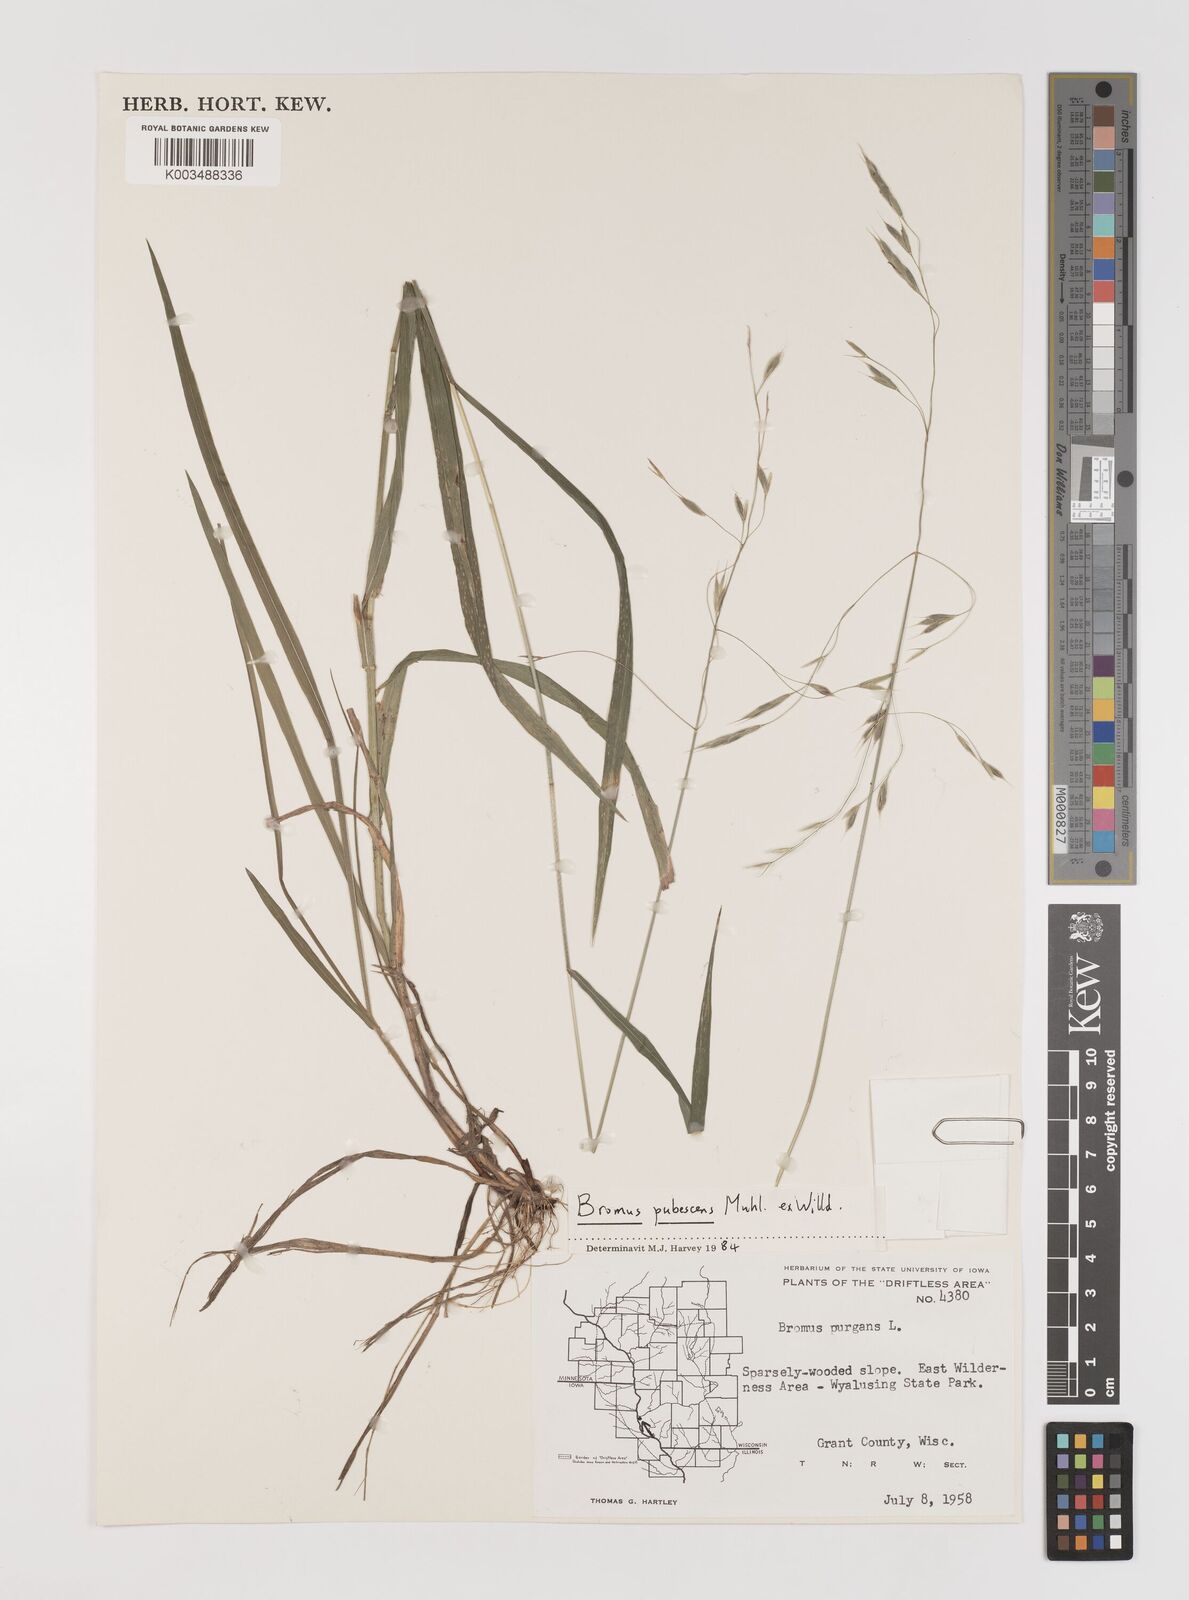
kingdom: Plantae
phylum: Tracheophyta
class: Liliopsida
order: Poales
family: Poaceae
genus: Bromus
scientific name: Bromus pubescens
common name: Hairy wood brome grass
